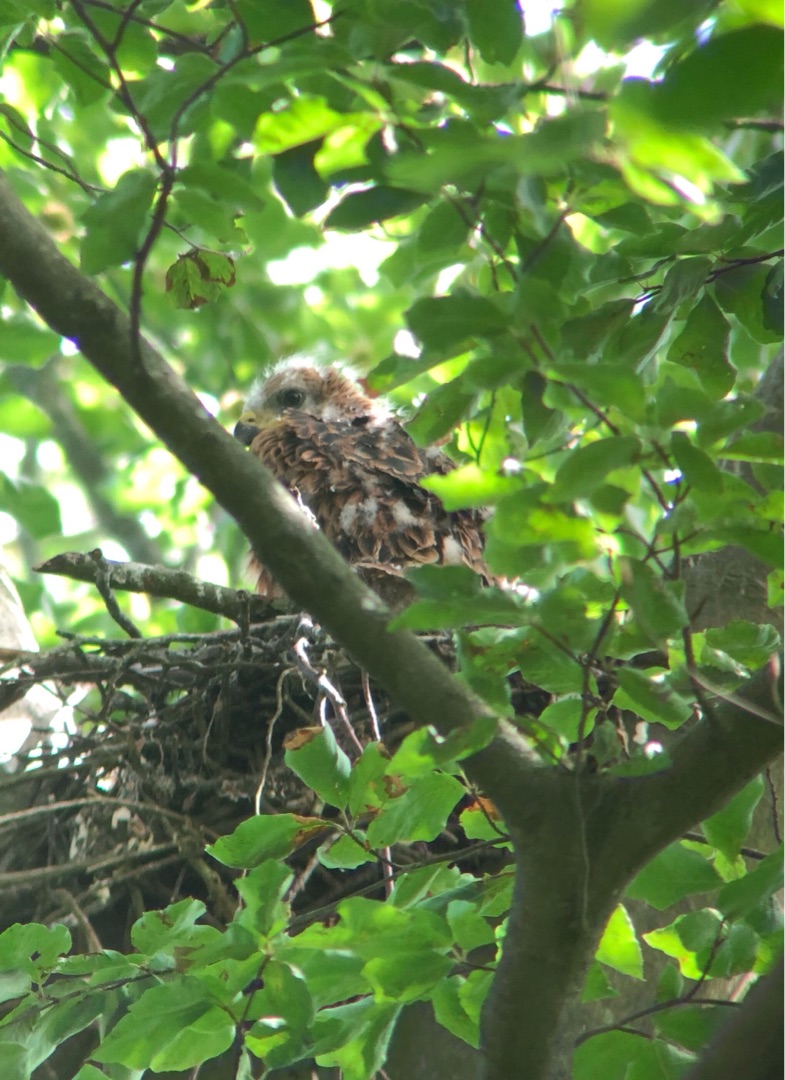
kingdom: Animalia
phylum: Chordata
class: Aves
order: Accipitriformes
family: Accipitridae
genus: Milvus
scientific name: Milvus milvus
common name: Rød glente
